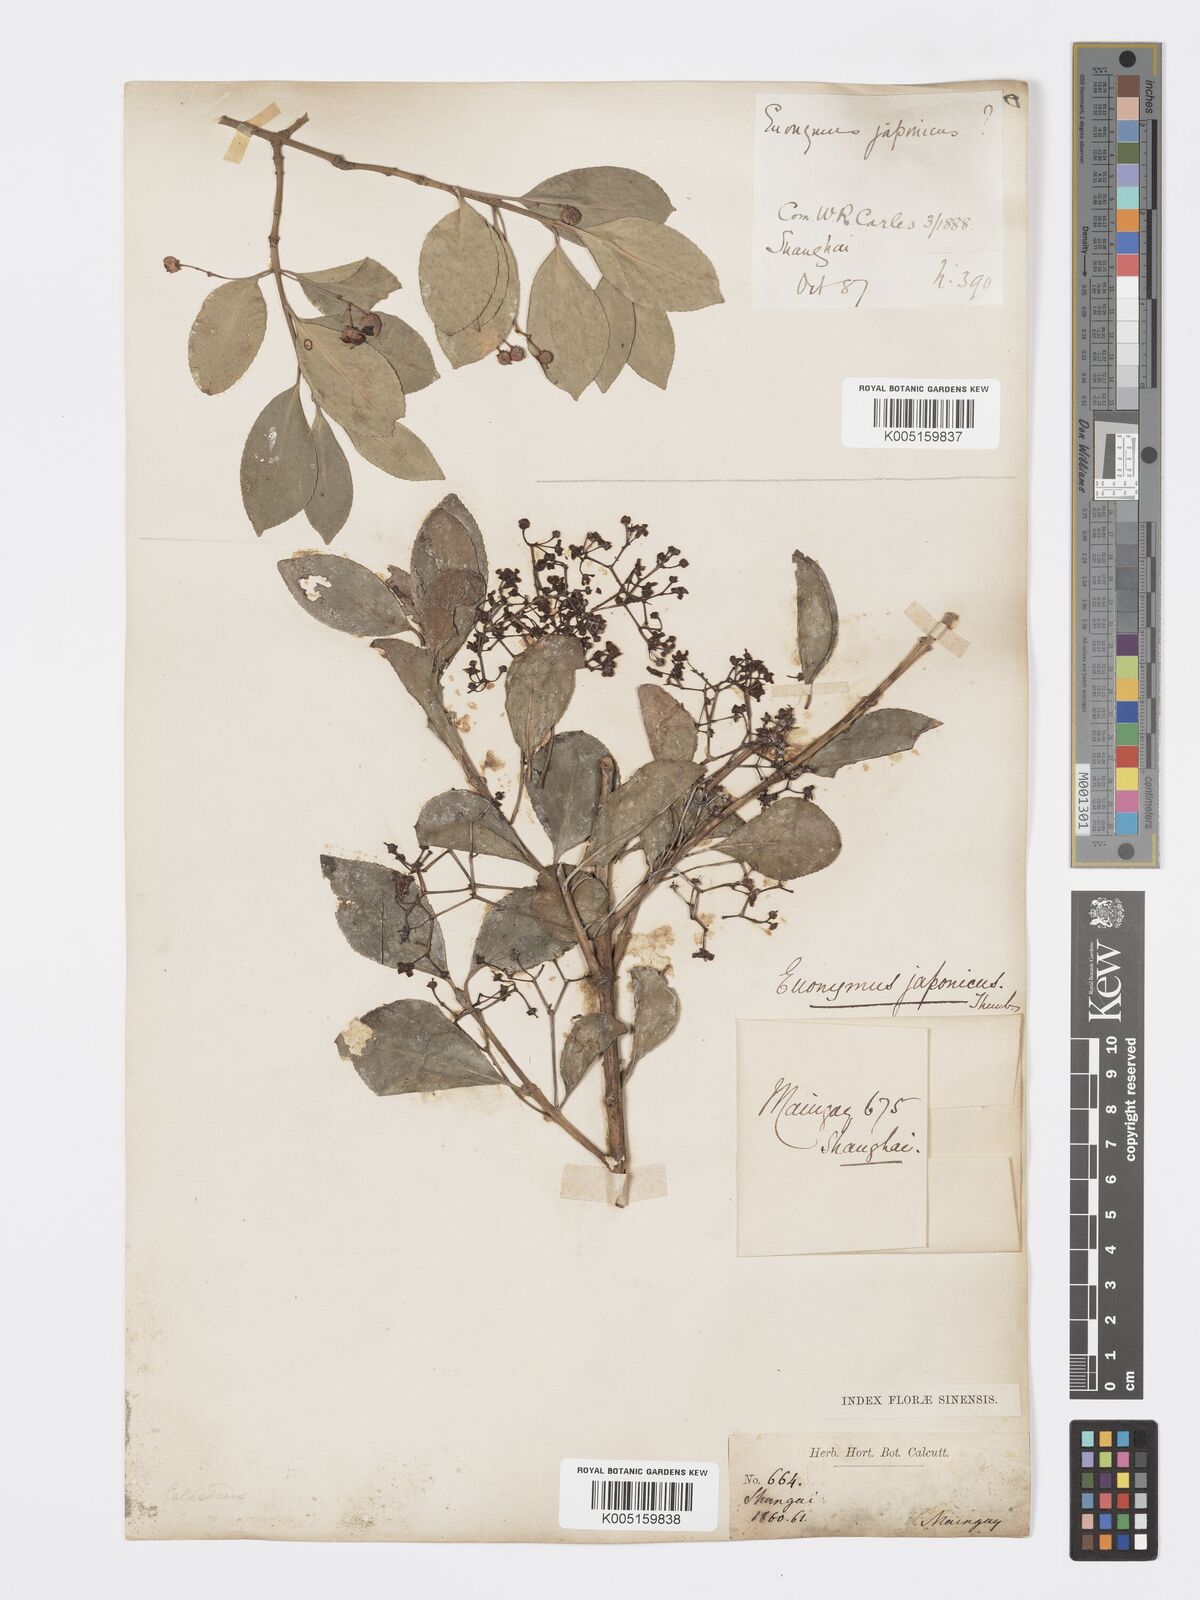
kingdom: Plantae
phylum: Tracheophyta
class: Magnoliopsida
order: Celastrales
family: Celastraceae
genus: Euonymus
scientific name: Euonymus
